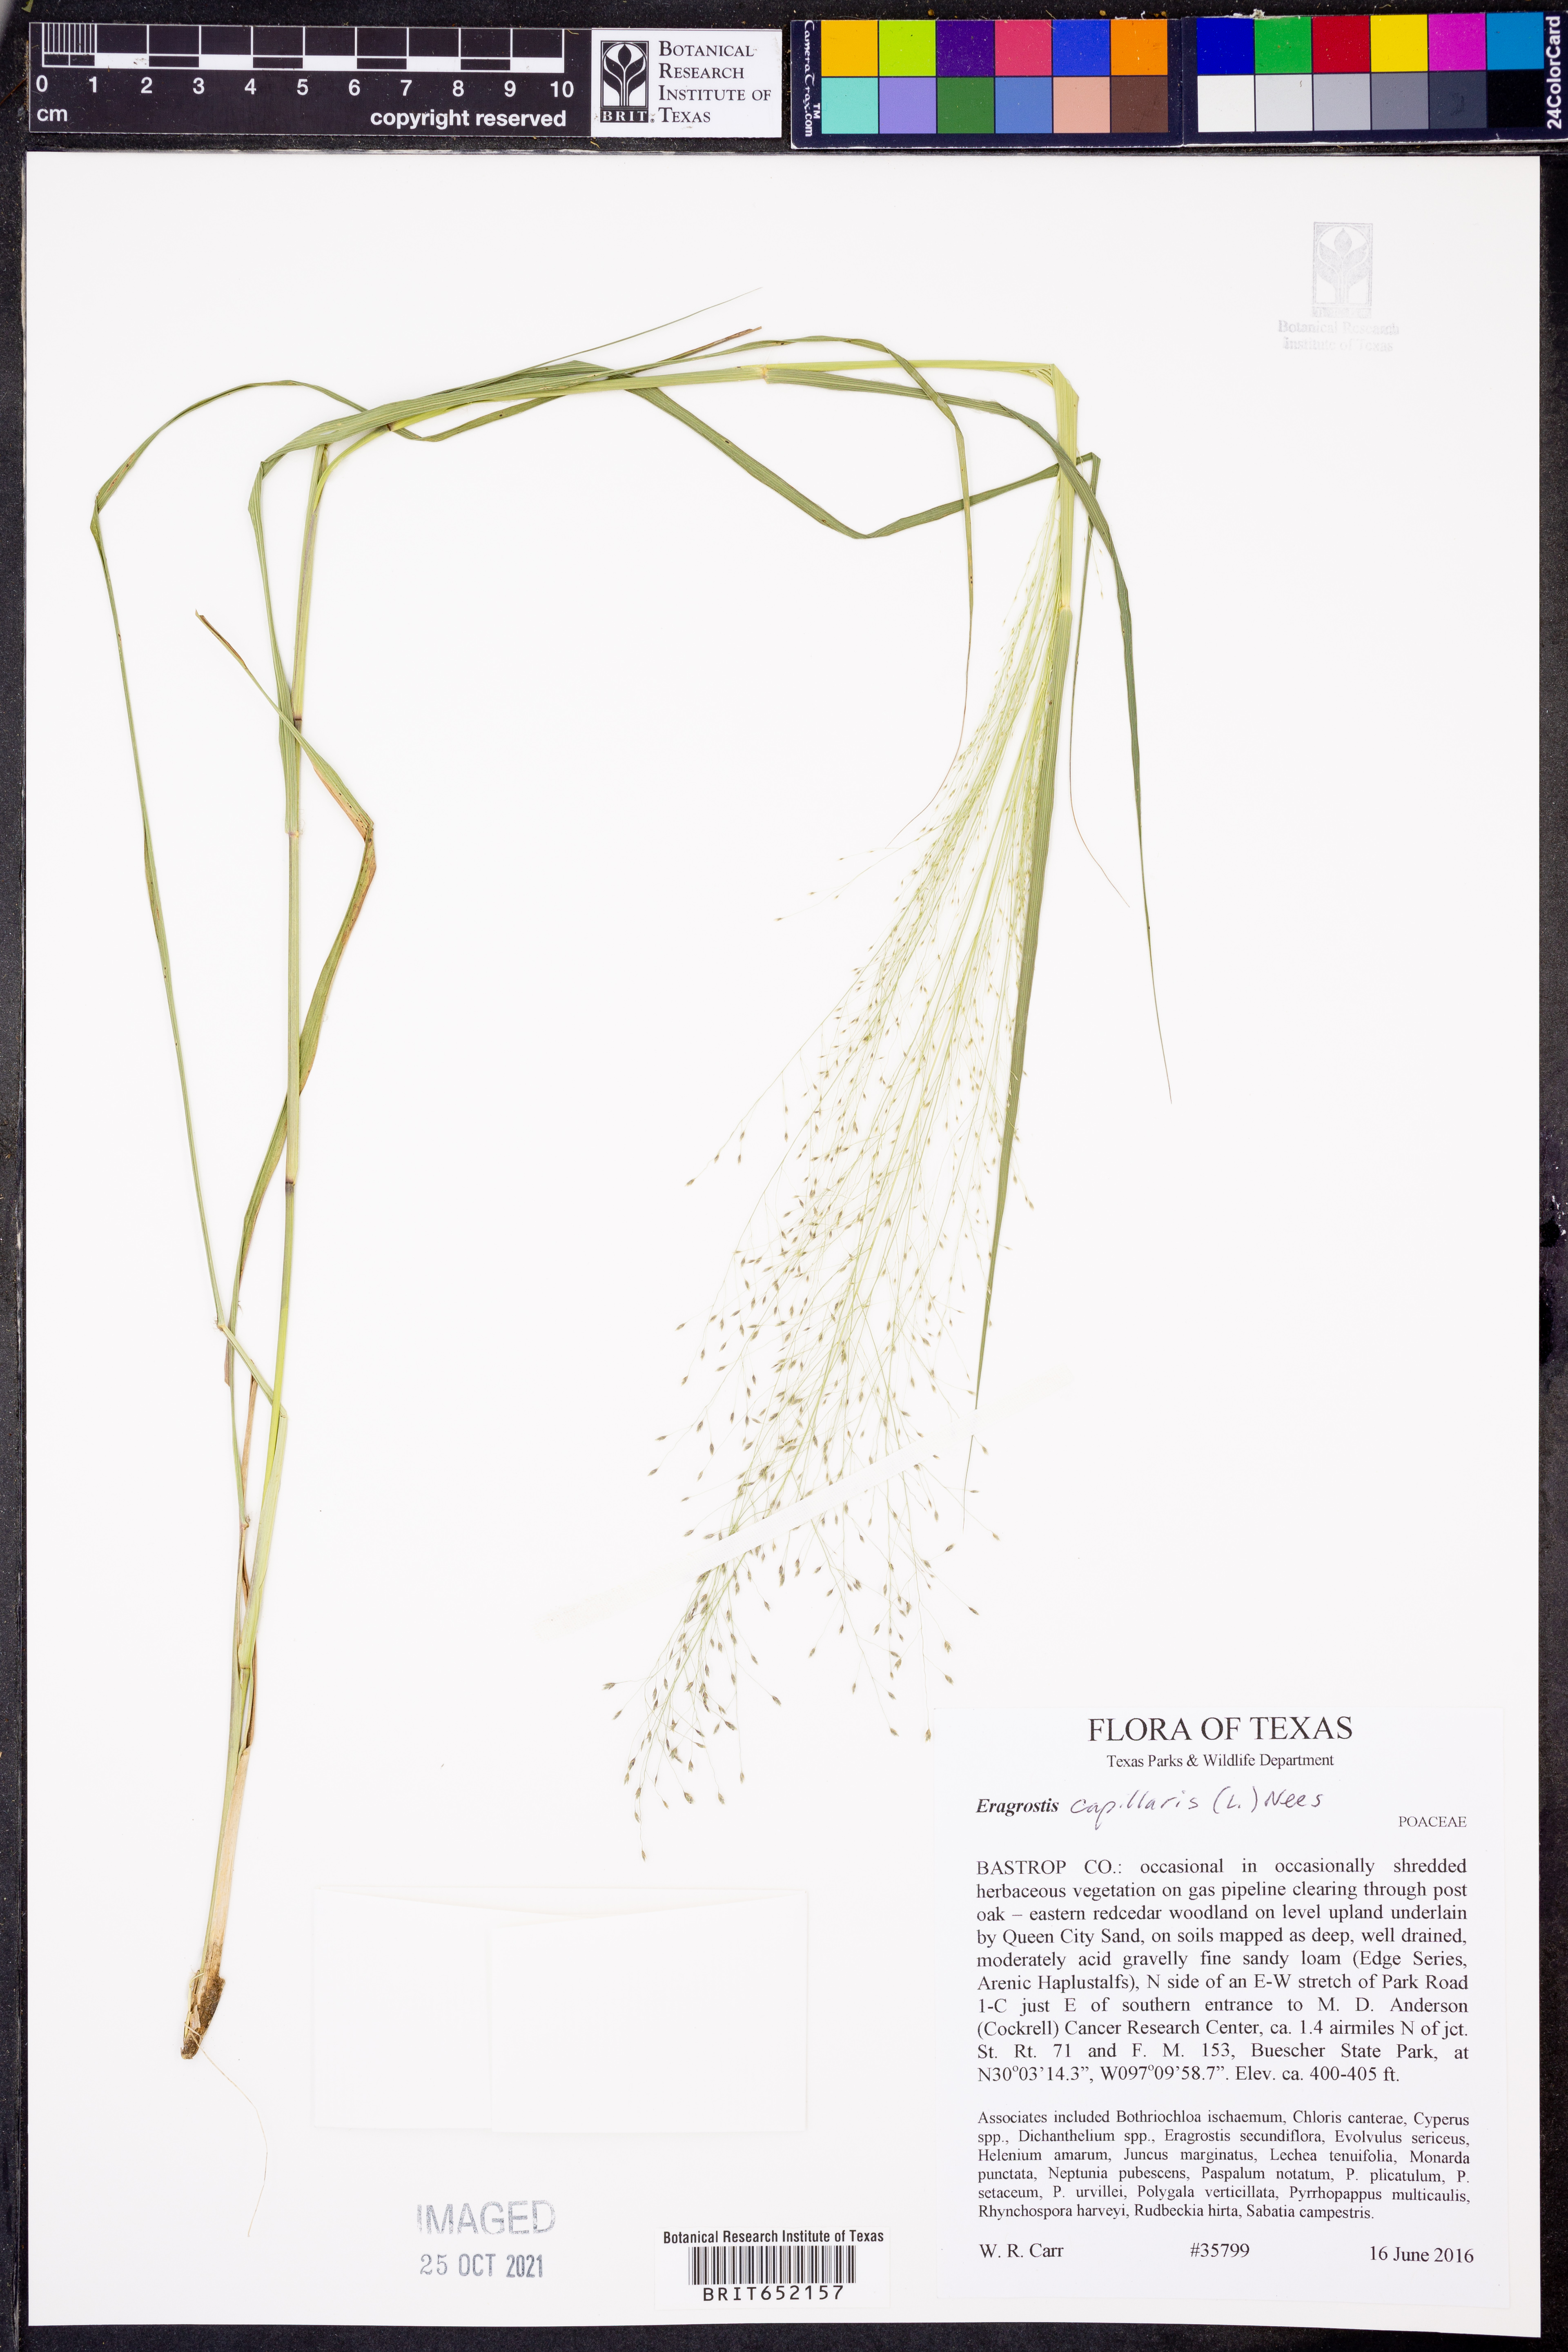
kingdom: Plantae
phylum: Tracheophyta
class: Liliopsida
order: Poales
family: Poaceae
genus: Eragrostis
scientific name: Eragrostis capillaris
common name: Hair-like lovegrass
